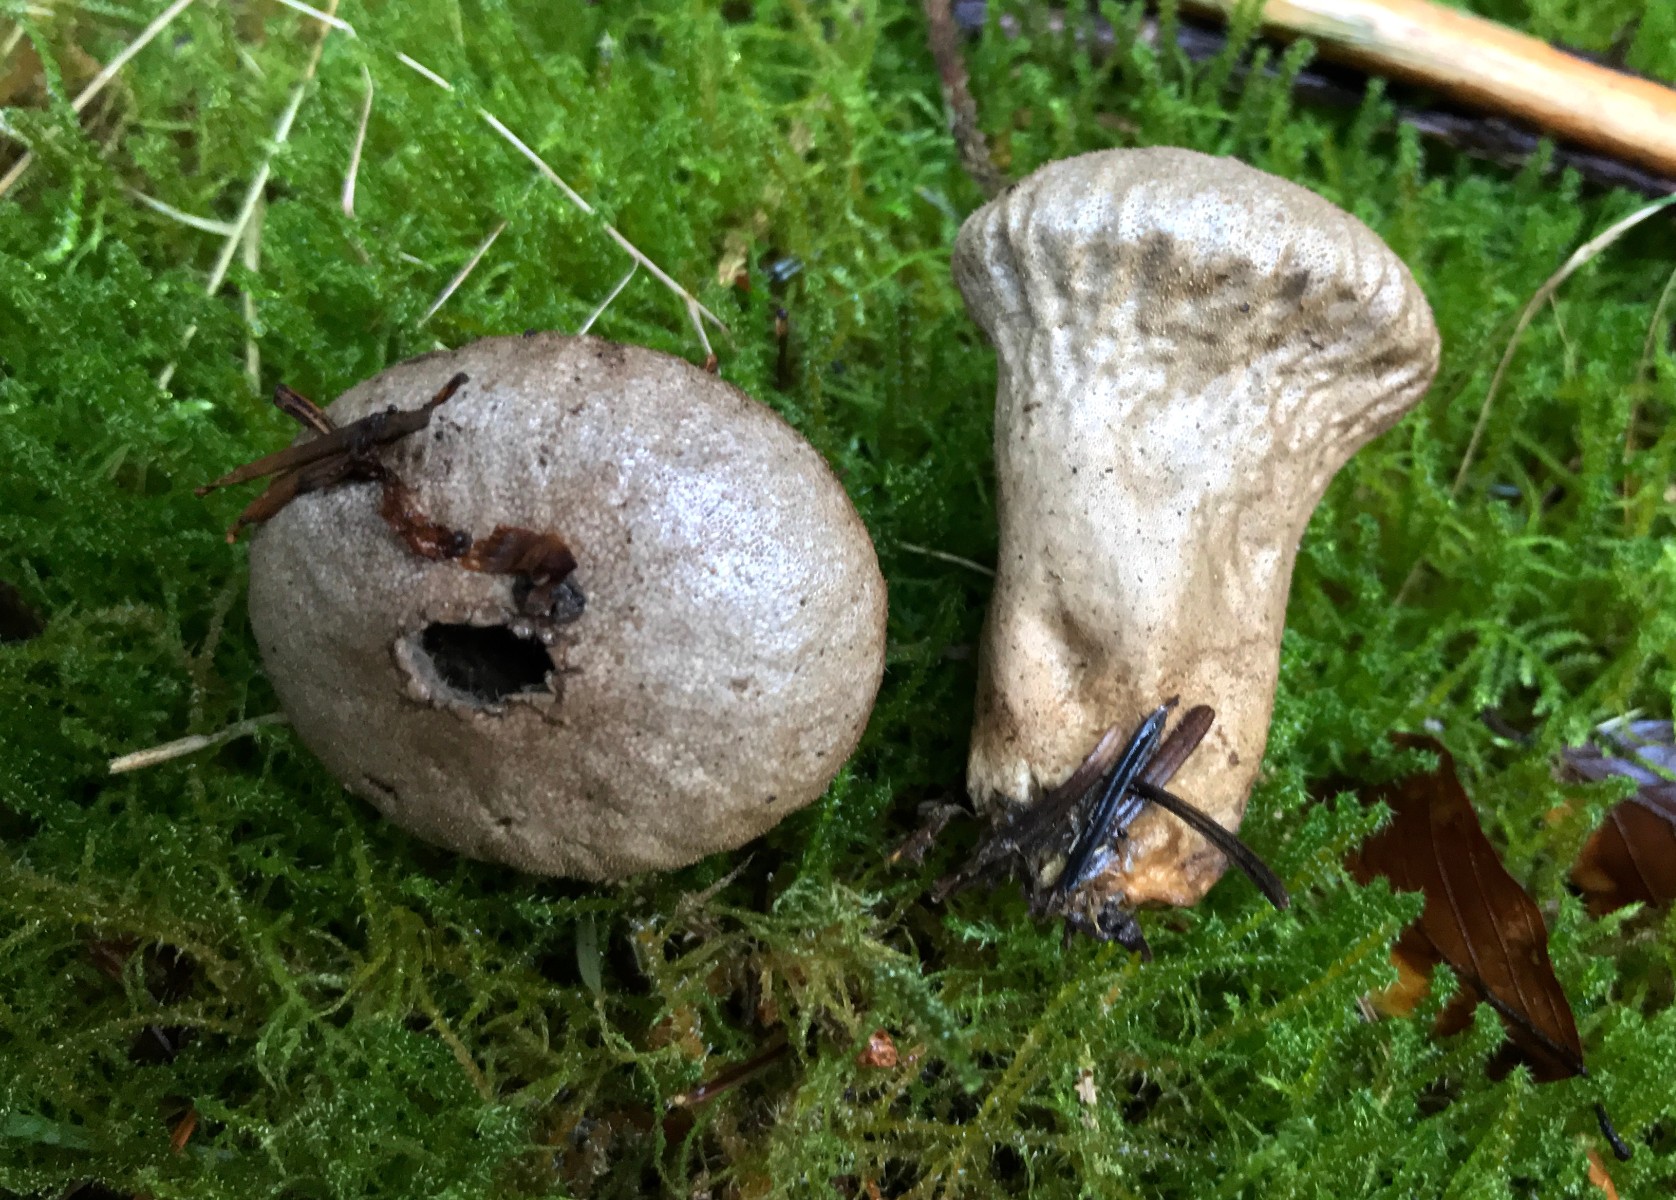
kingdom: Fungi
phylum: Basidiomycota
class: Agaricomycetes
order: Agaricales
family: Lycoperdaceae
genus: Lycoperdon
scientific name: Lycoperdon perlatum
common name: krystal-støvbold
